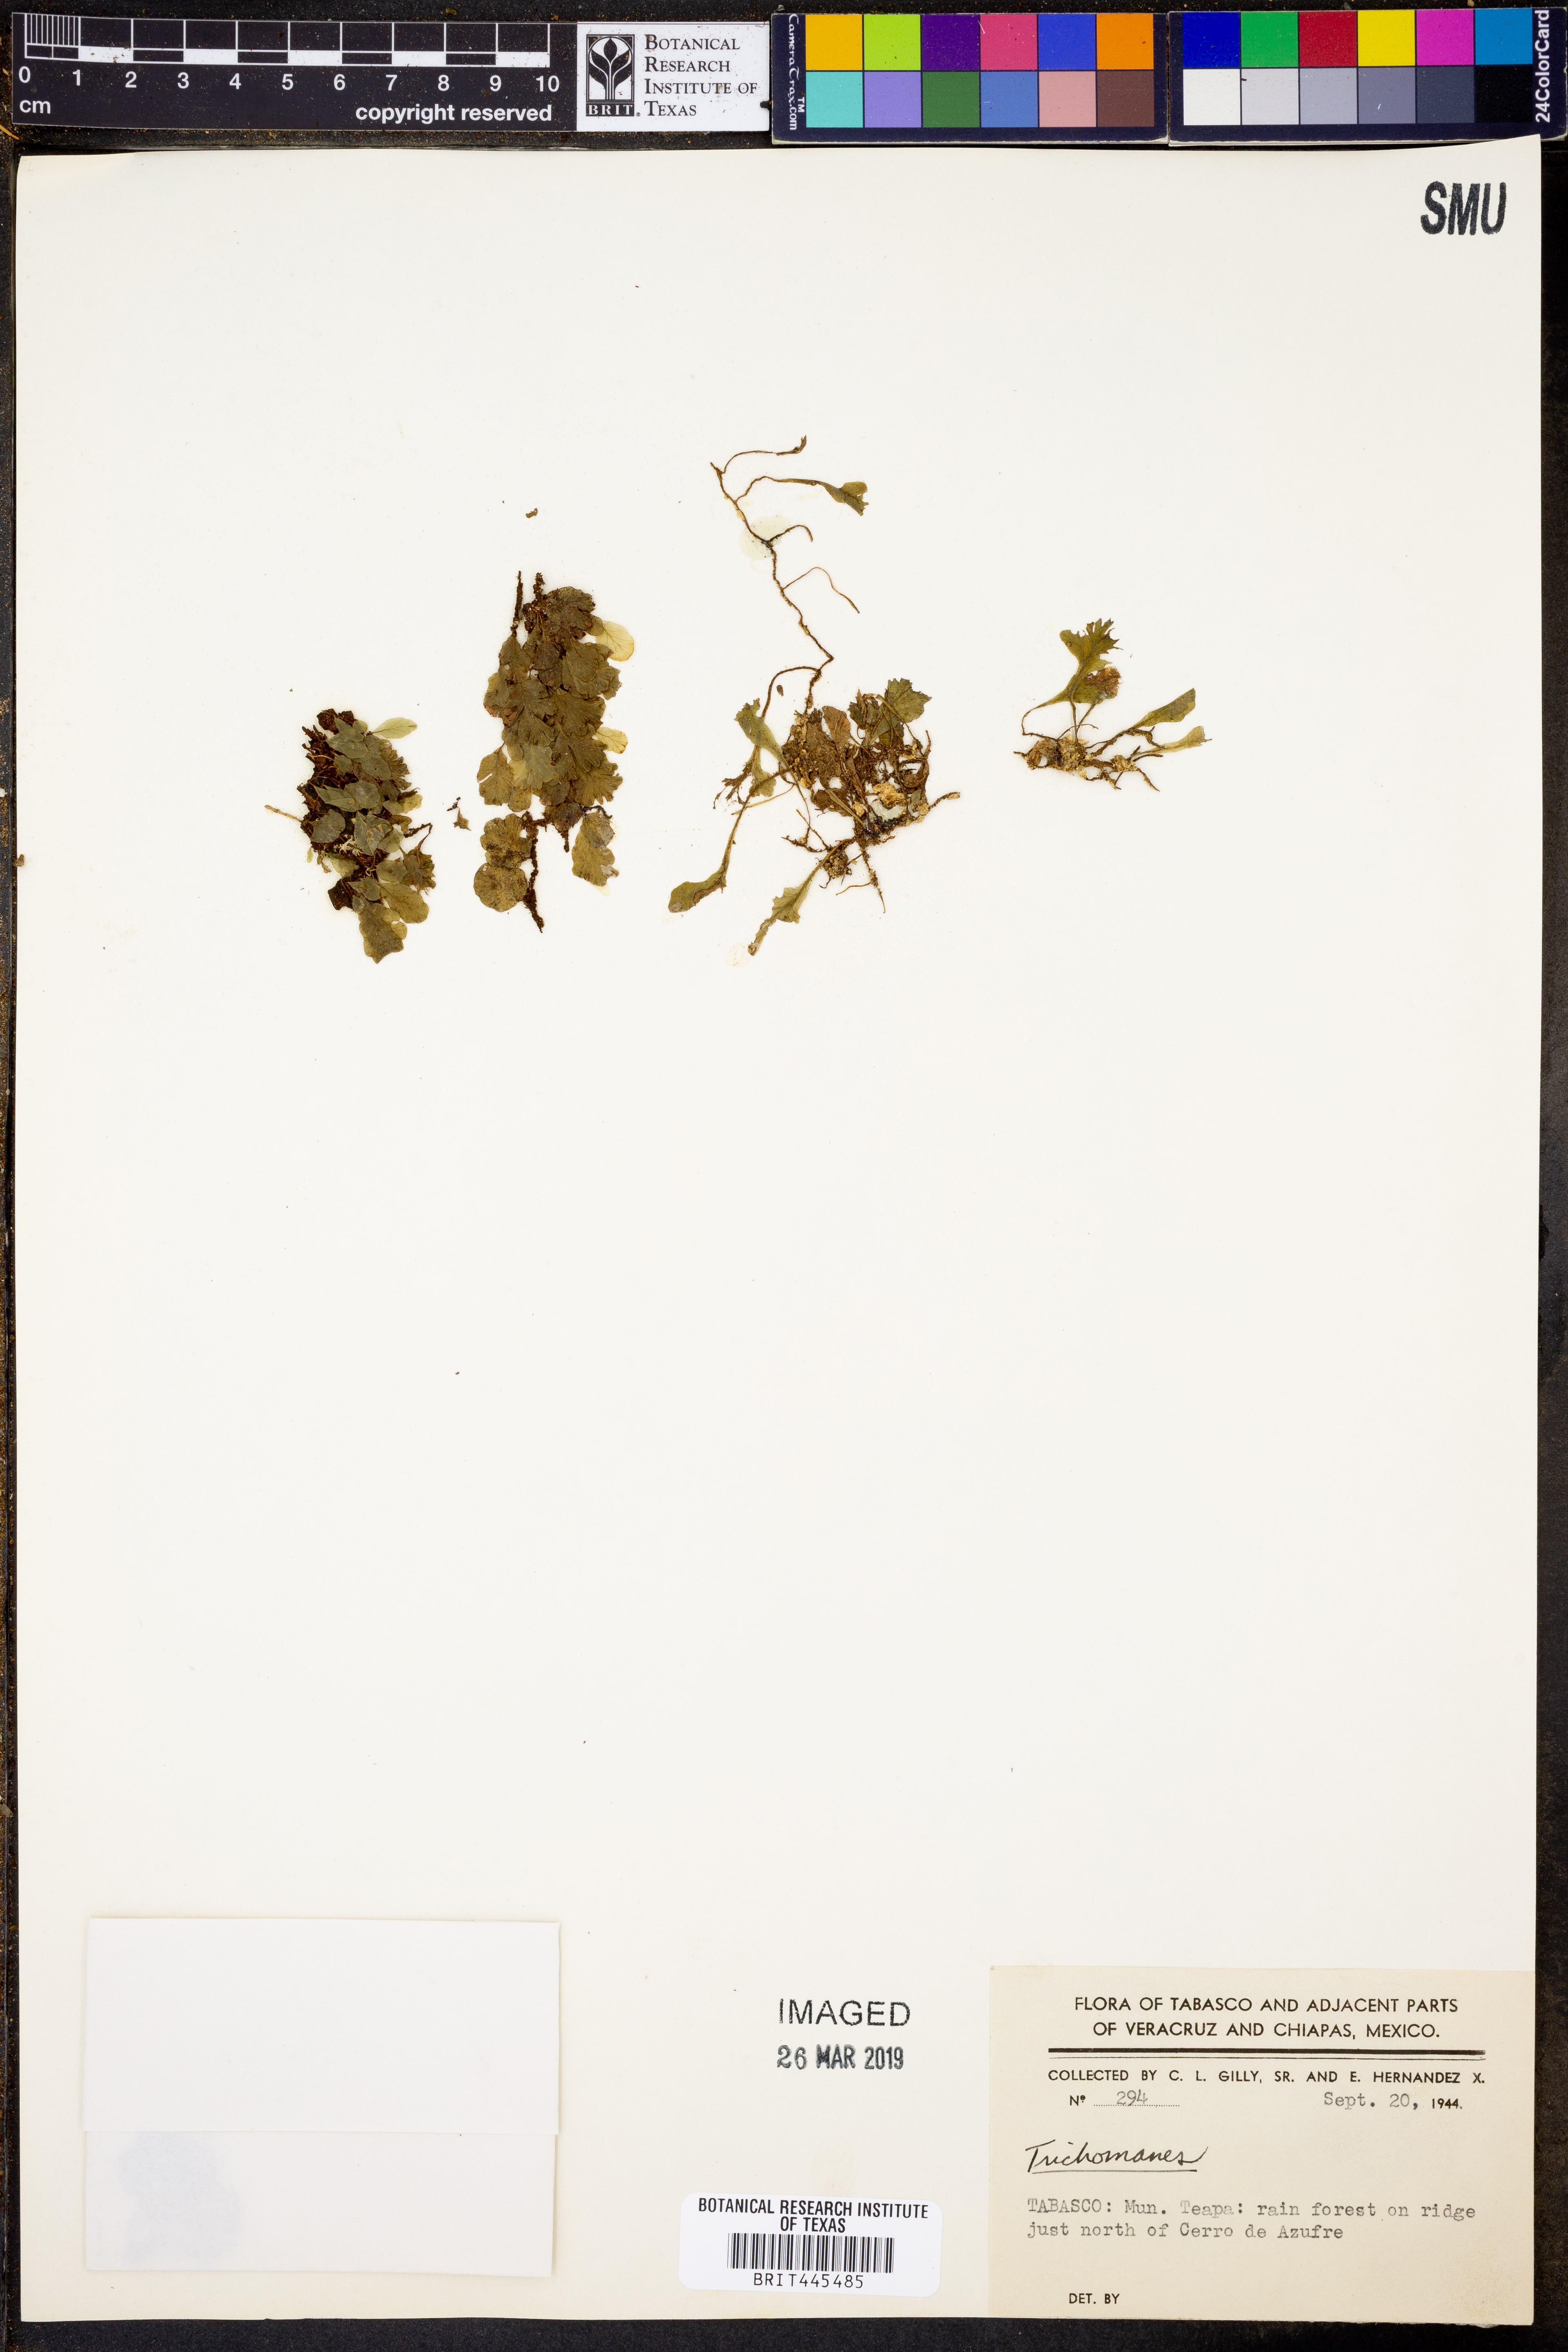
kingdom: Plantae
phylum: Tracheophyta
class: Polypodiopsida
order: Hymenophyllales
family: Hymenophyllaceae
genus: Trichomanes
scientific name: Trichomanes
